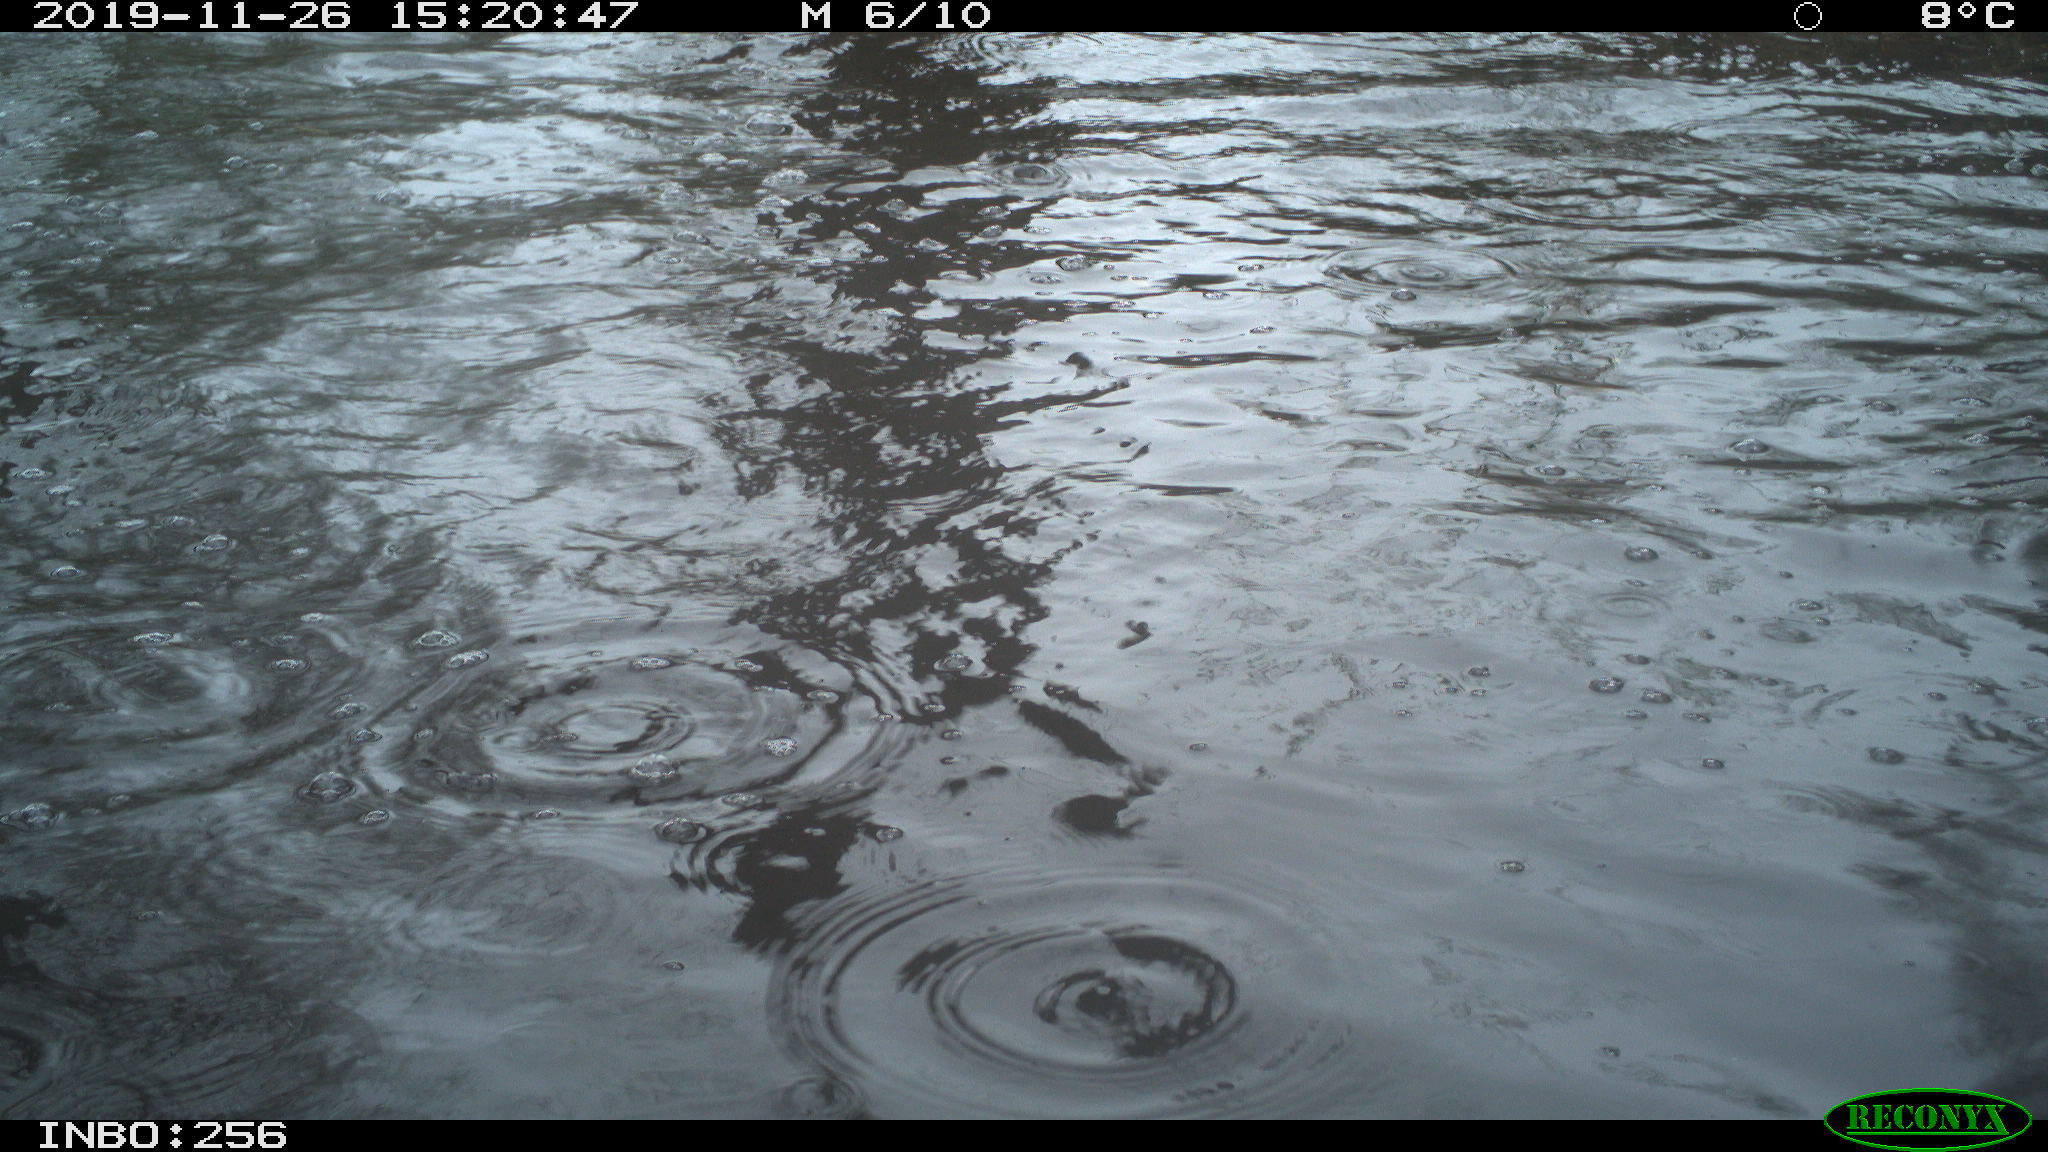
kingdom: Animalia
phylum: Chordata
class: Aves
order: Anseriformes
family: Anatidae
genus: Anas
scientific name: Anas platyrhynchos
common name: Mallard
